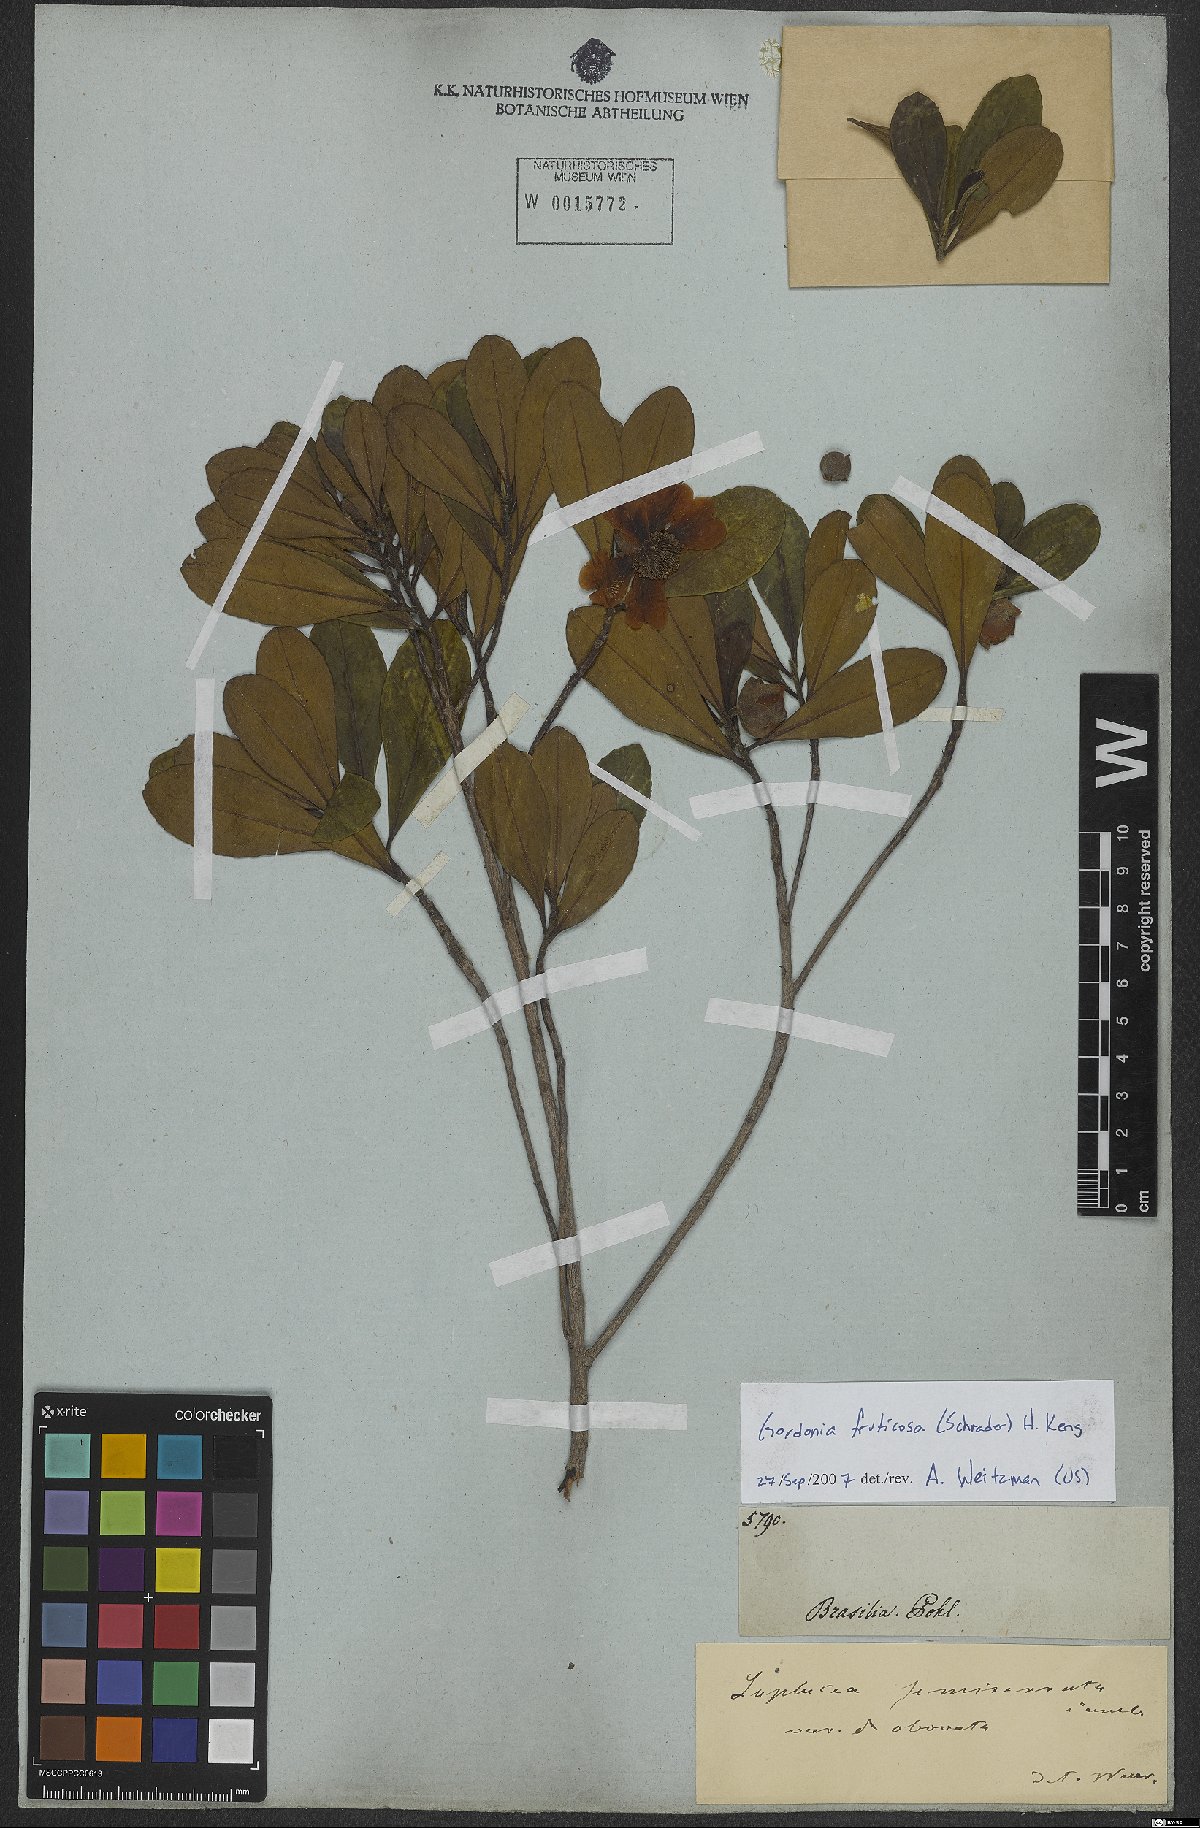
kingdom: Plantae
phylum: Tracheophyta
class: Magnoliopsida
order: Ericales
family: Theaceae
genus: Gordonia
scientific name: Gordonia fruticosa
